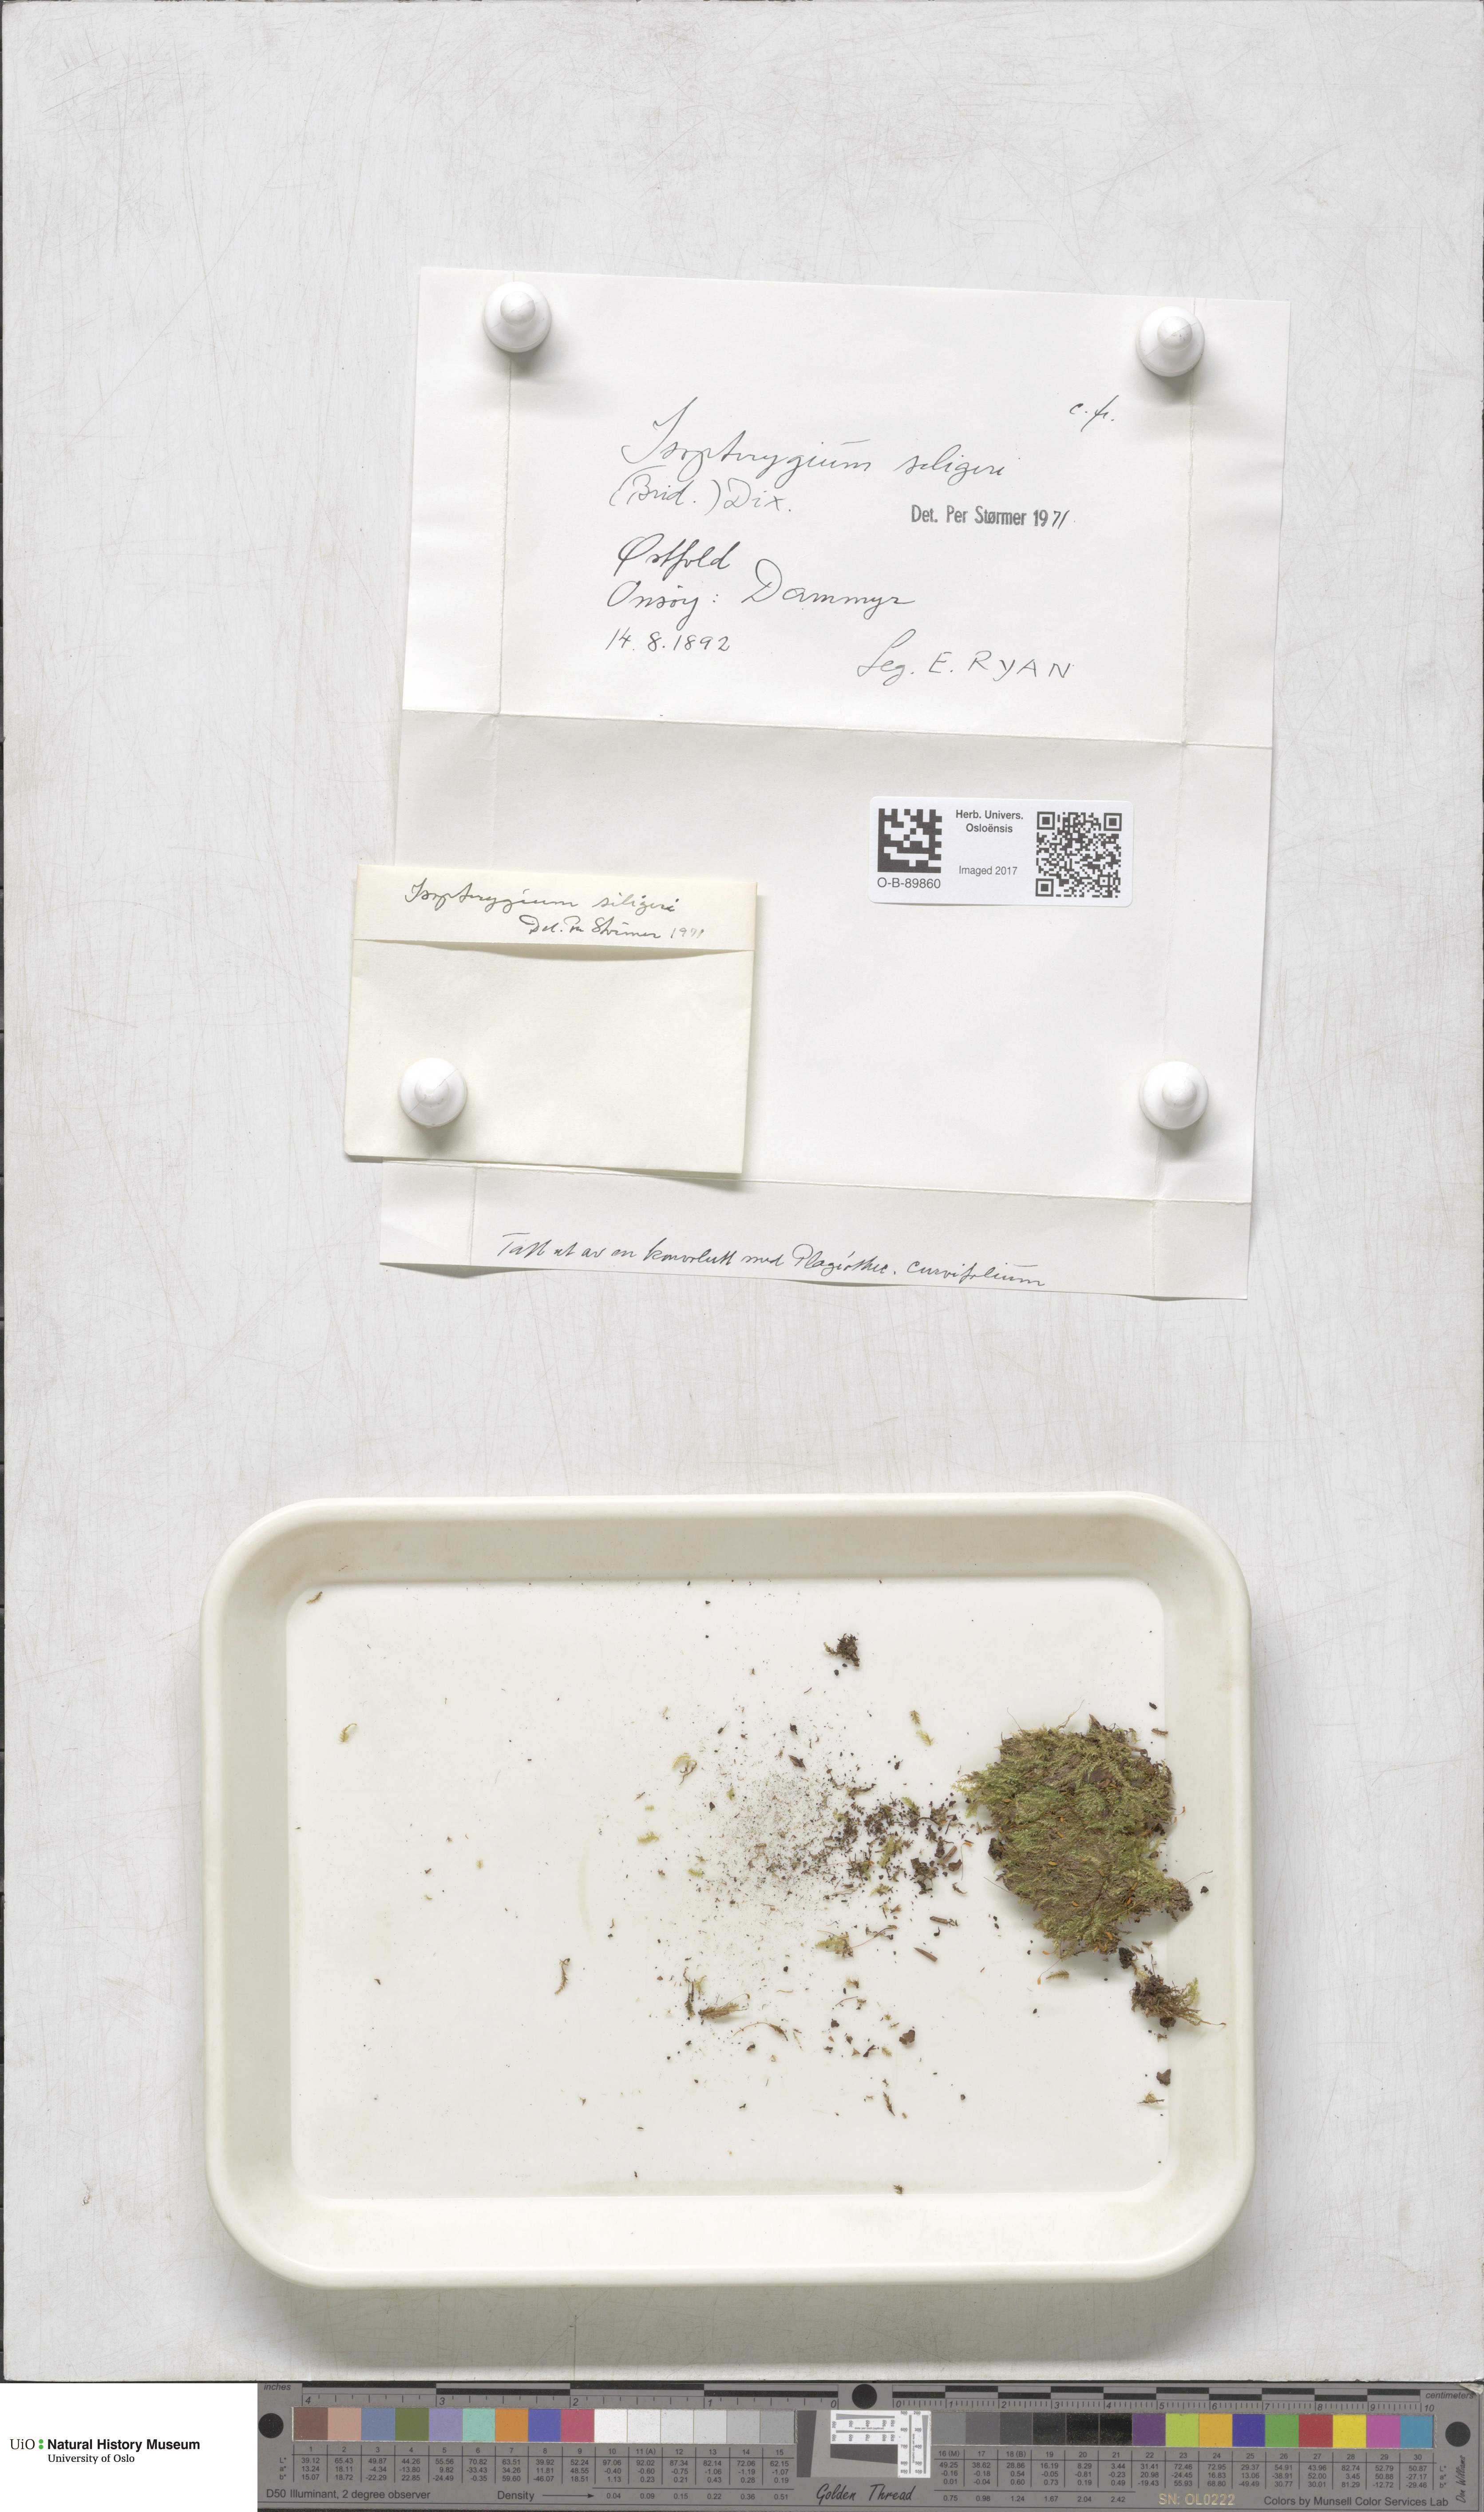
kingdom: Plantae
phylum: Bryophyta
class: Bryopsida
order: Hypnales
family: Plagiotheciaceae
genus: Herzogiella
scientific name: Herzogiella seligeri
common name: Silesian feather-moss
